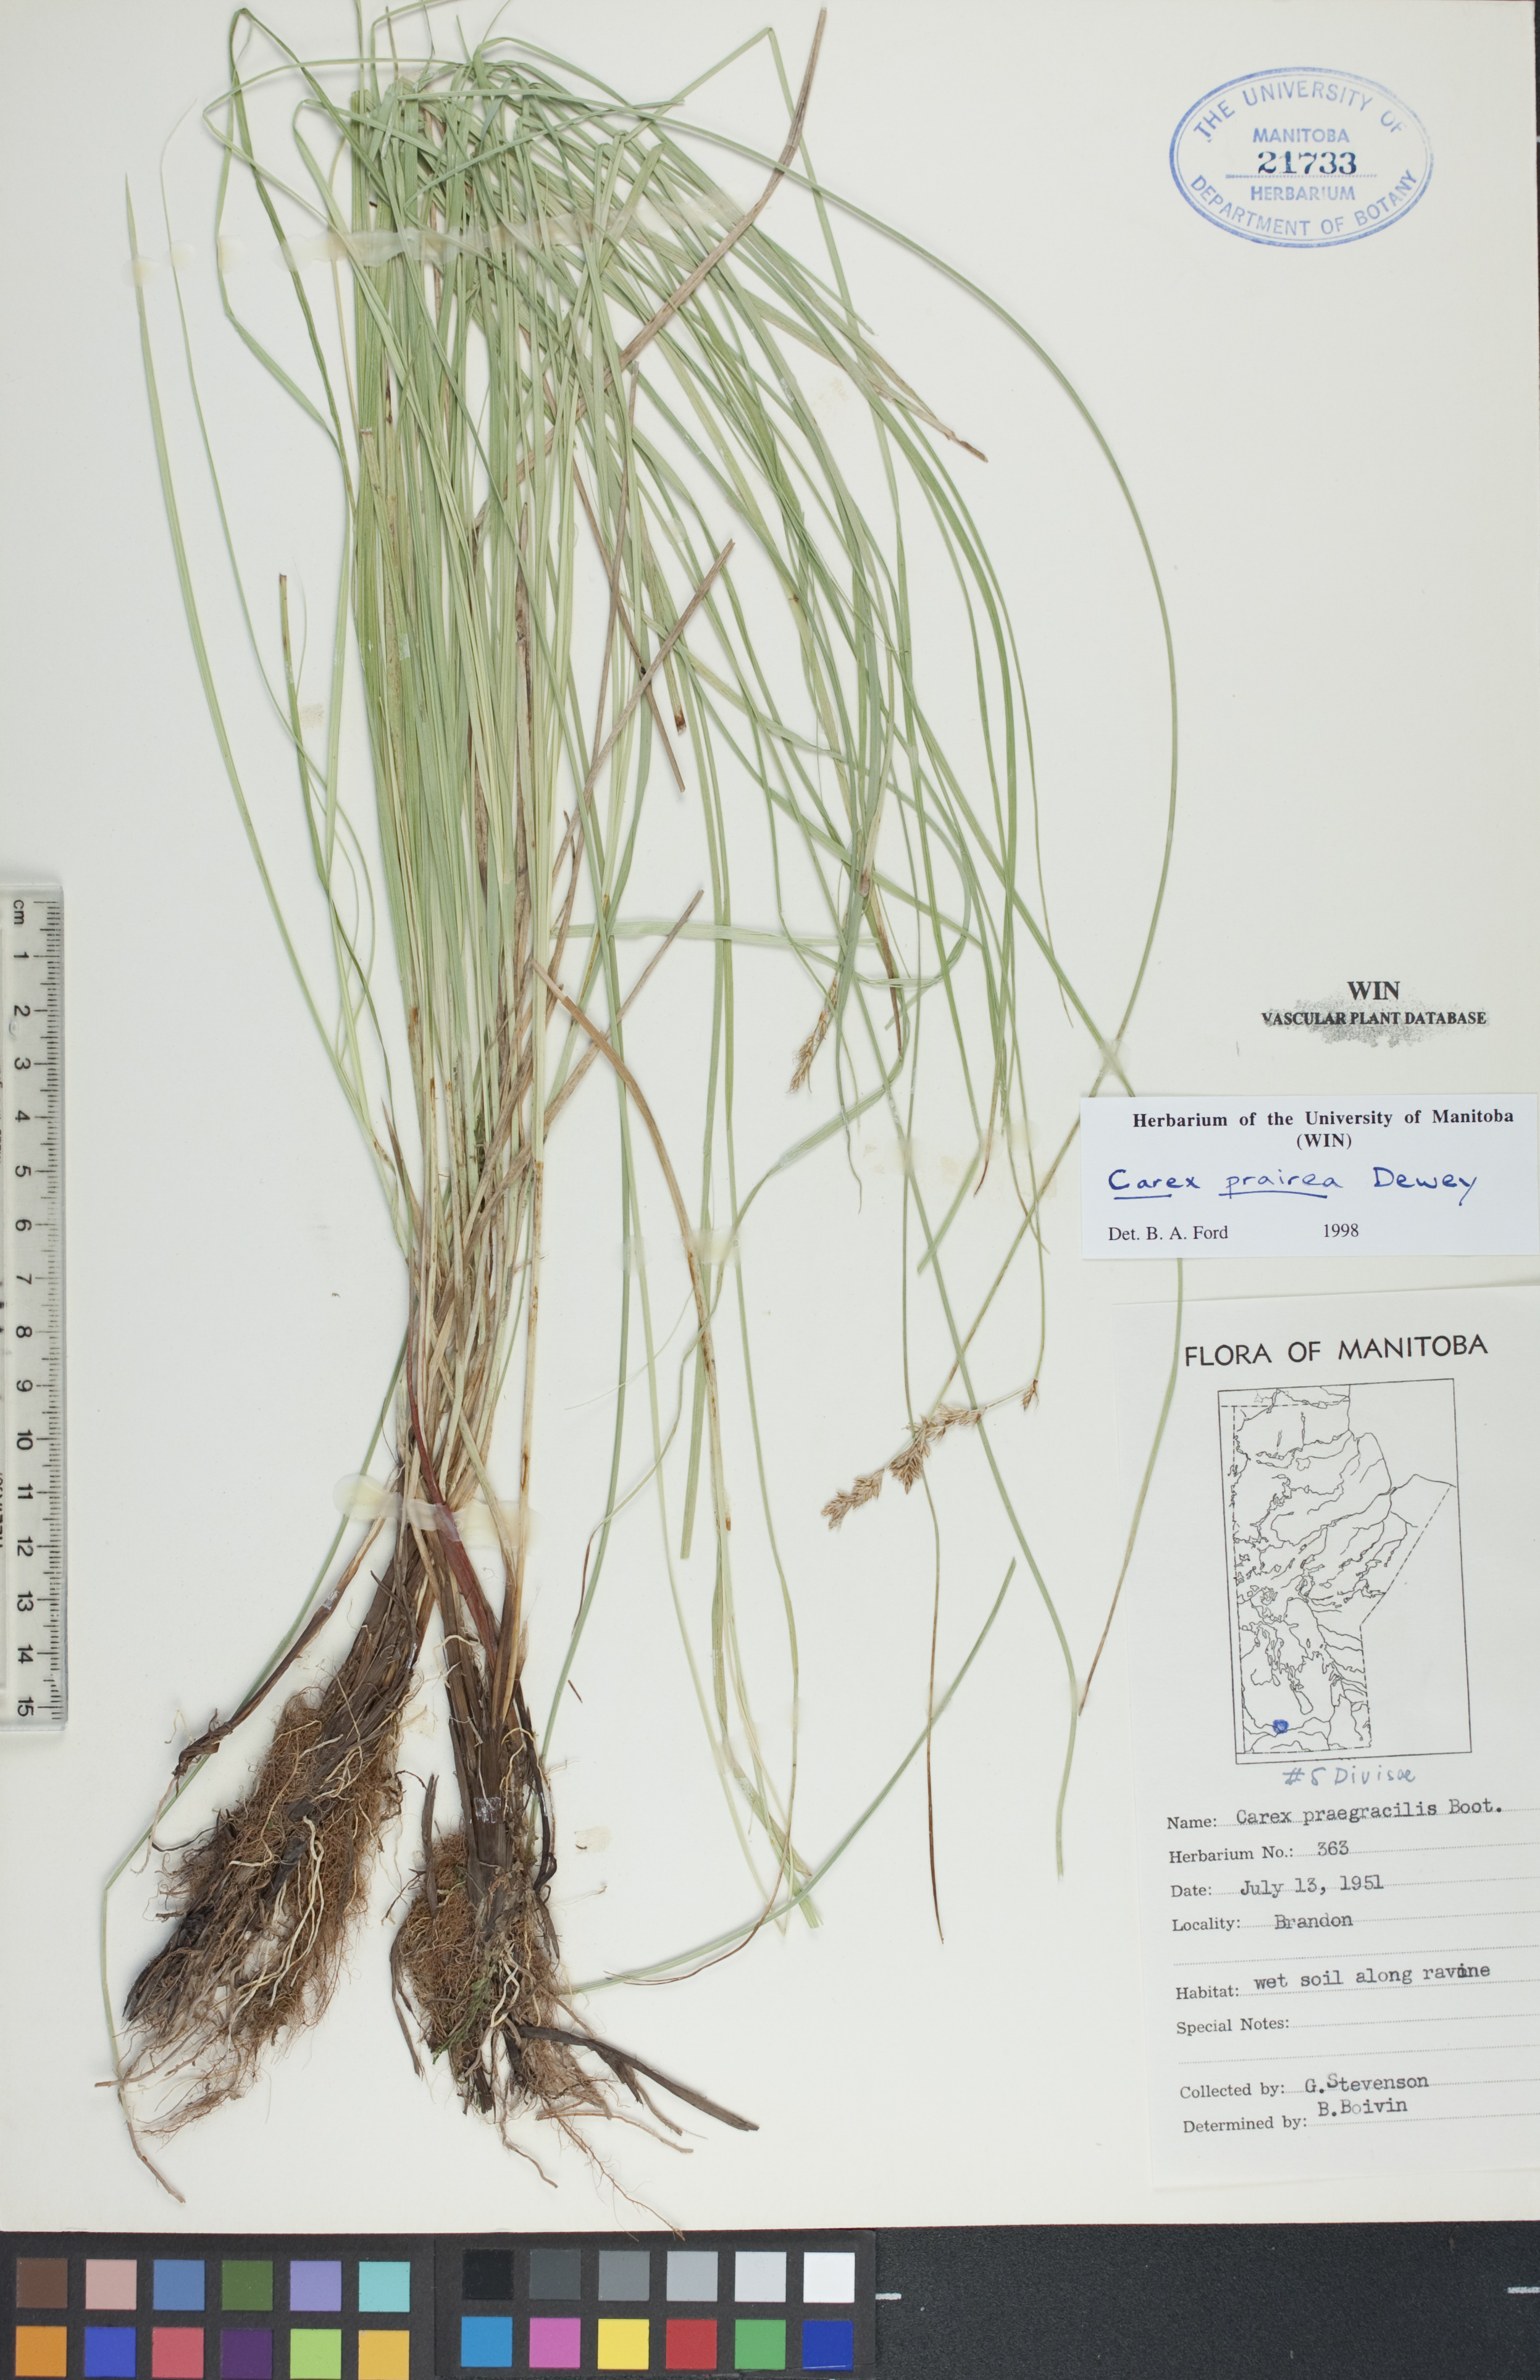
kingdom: Plantae
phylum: Tracheophyta
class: Liliopsida
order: Poales
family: Cyperaceae
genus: Carex
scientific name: Carex prairea
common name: Prairie sedge
